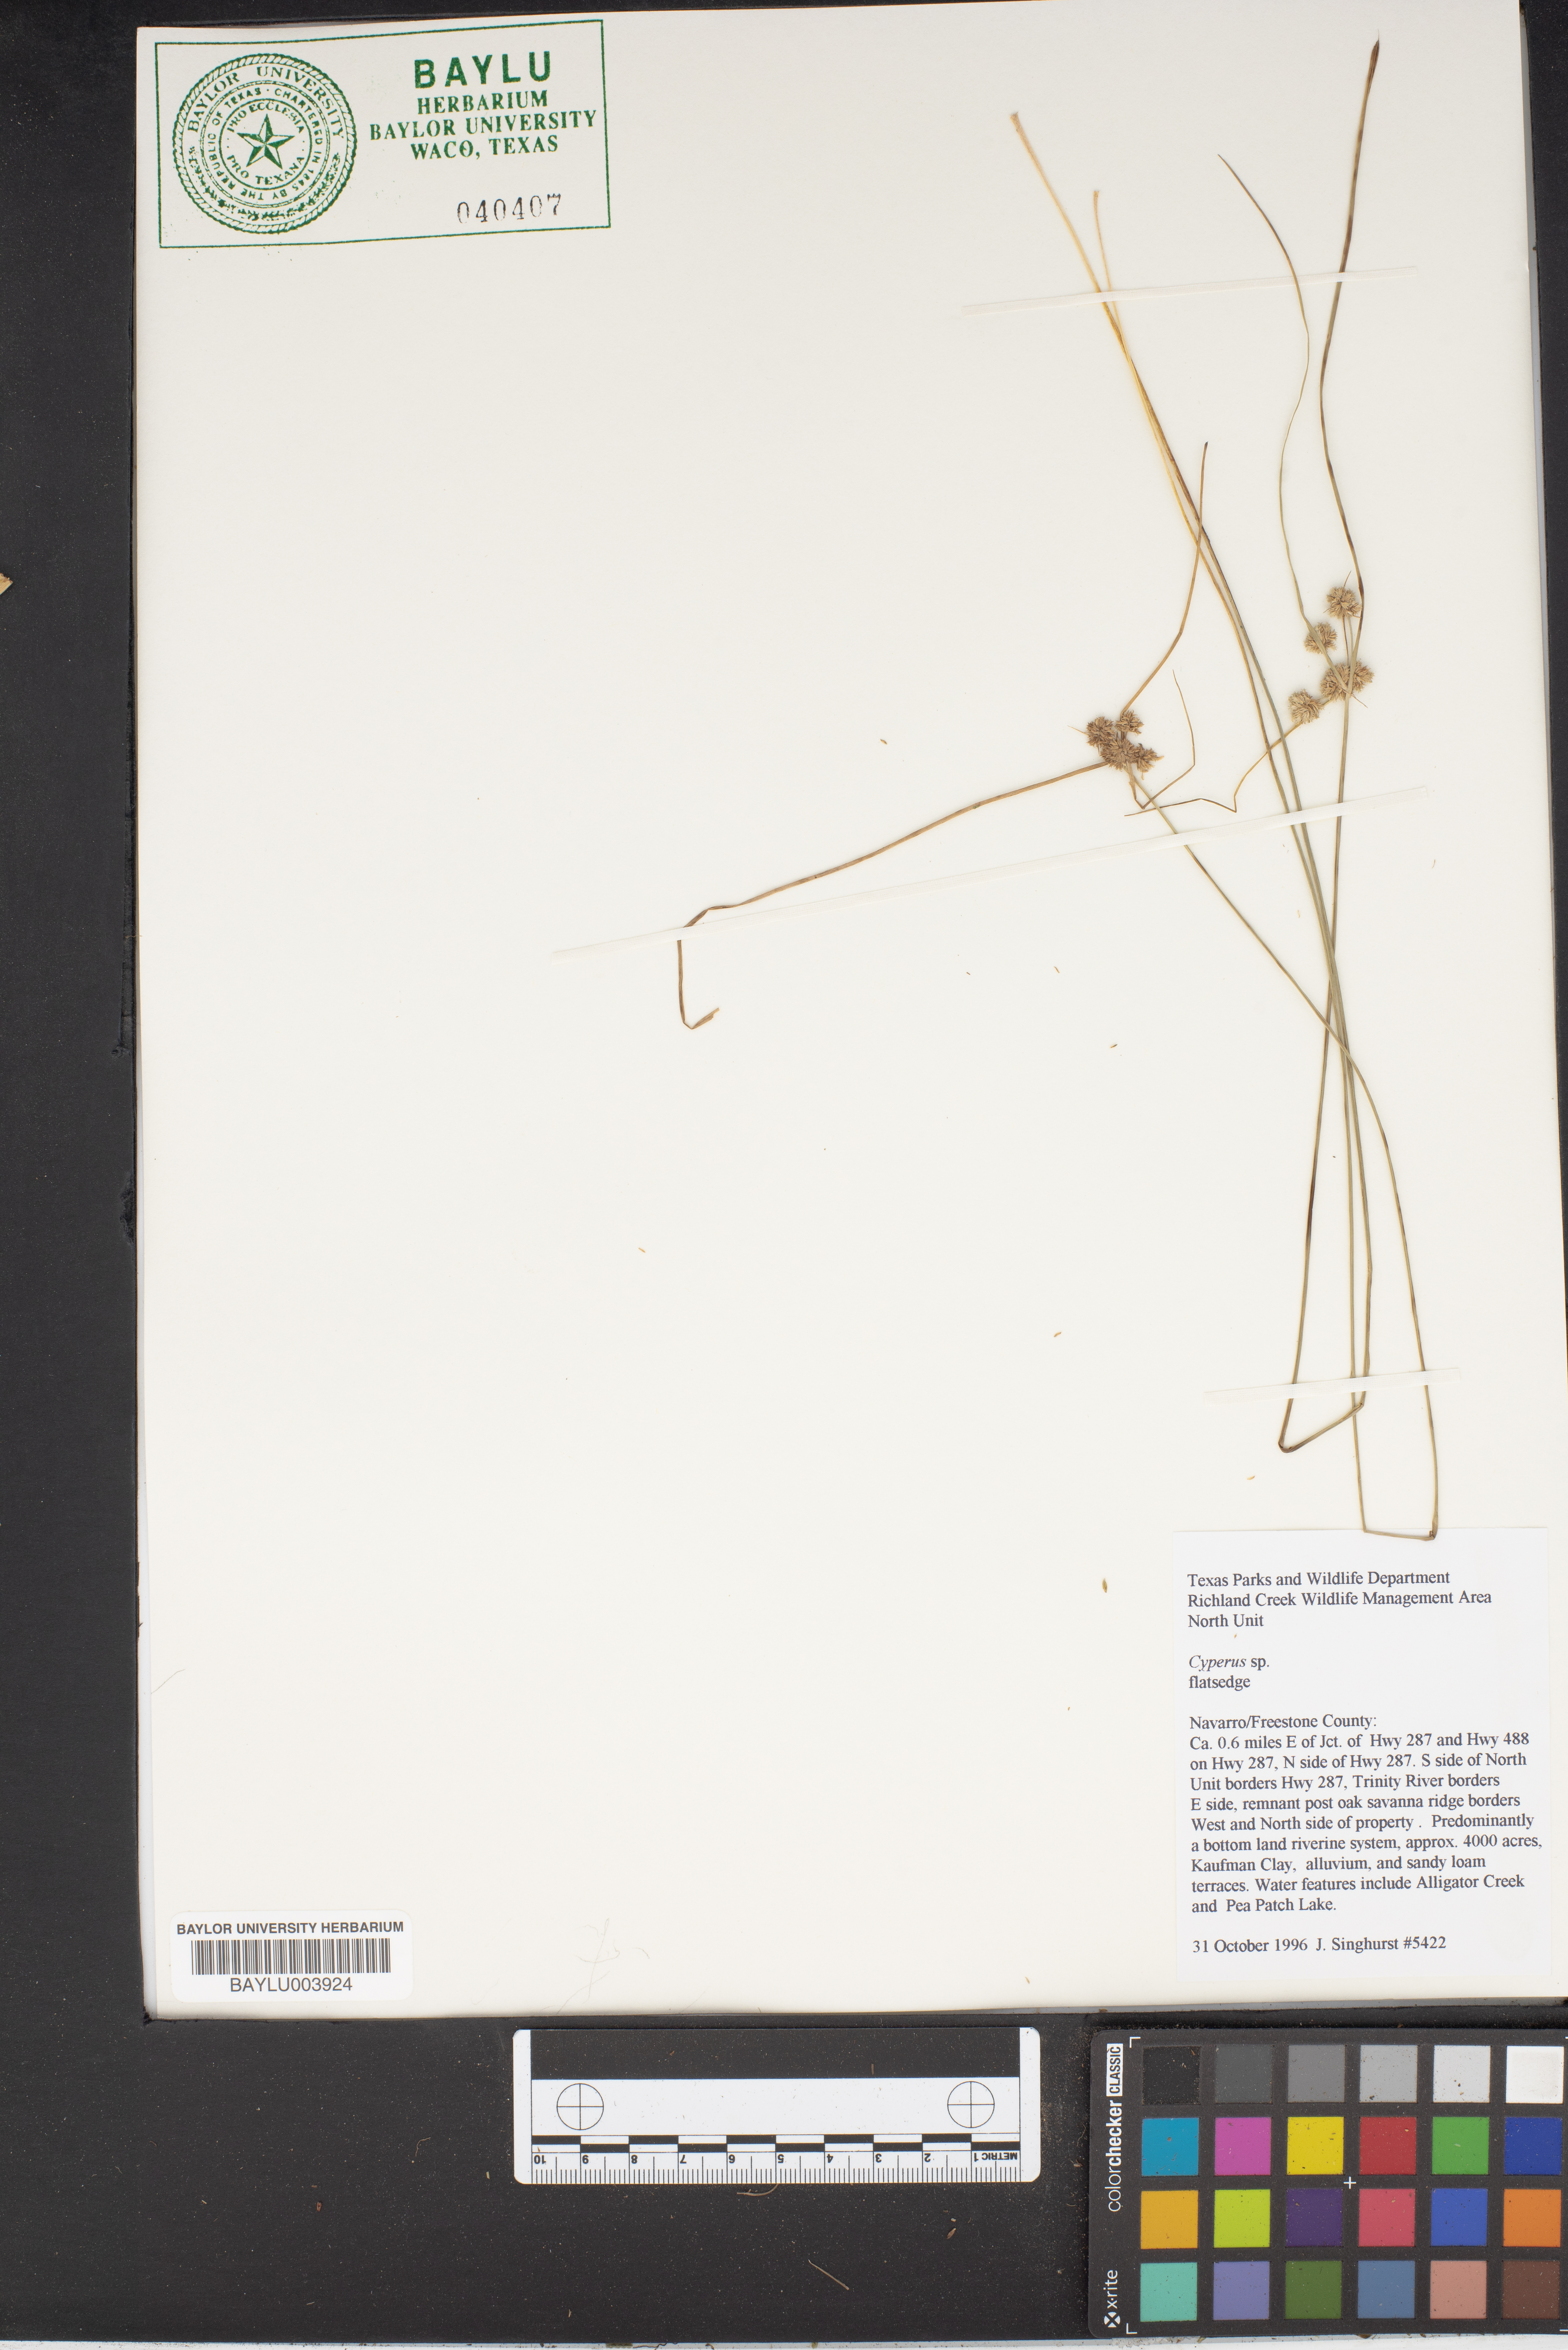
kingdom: Plantae
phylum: Tracheophyta
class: Liliopsida
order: Poales
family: Cyperaceae
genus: Cyperus
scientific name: Cyperus
